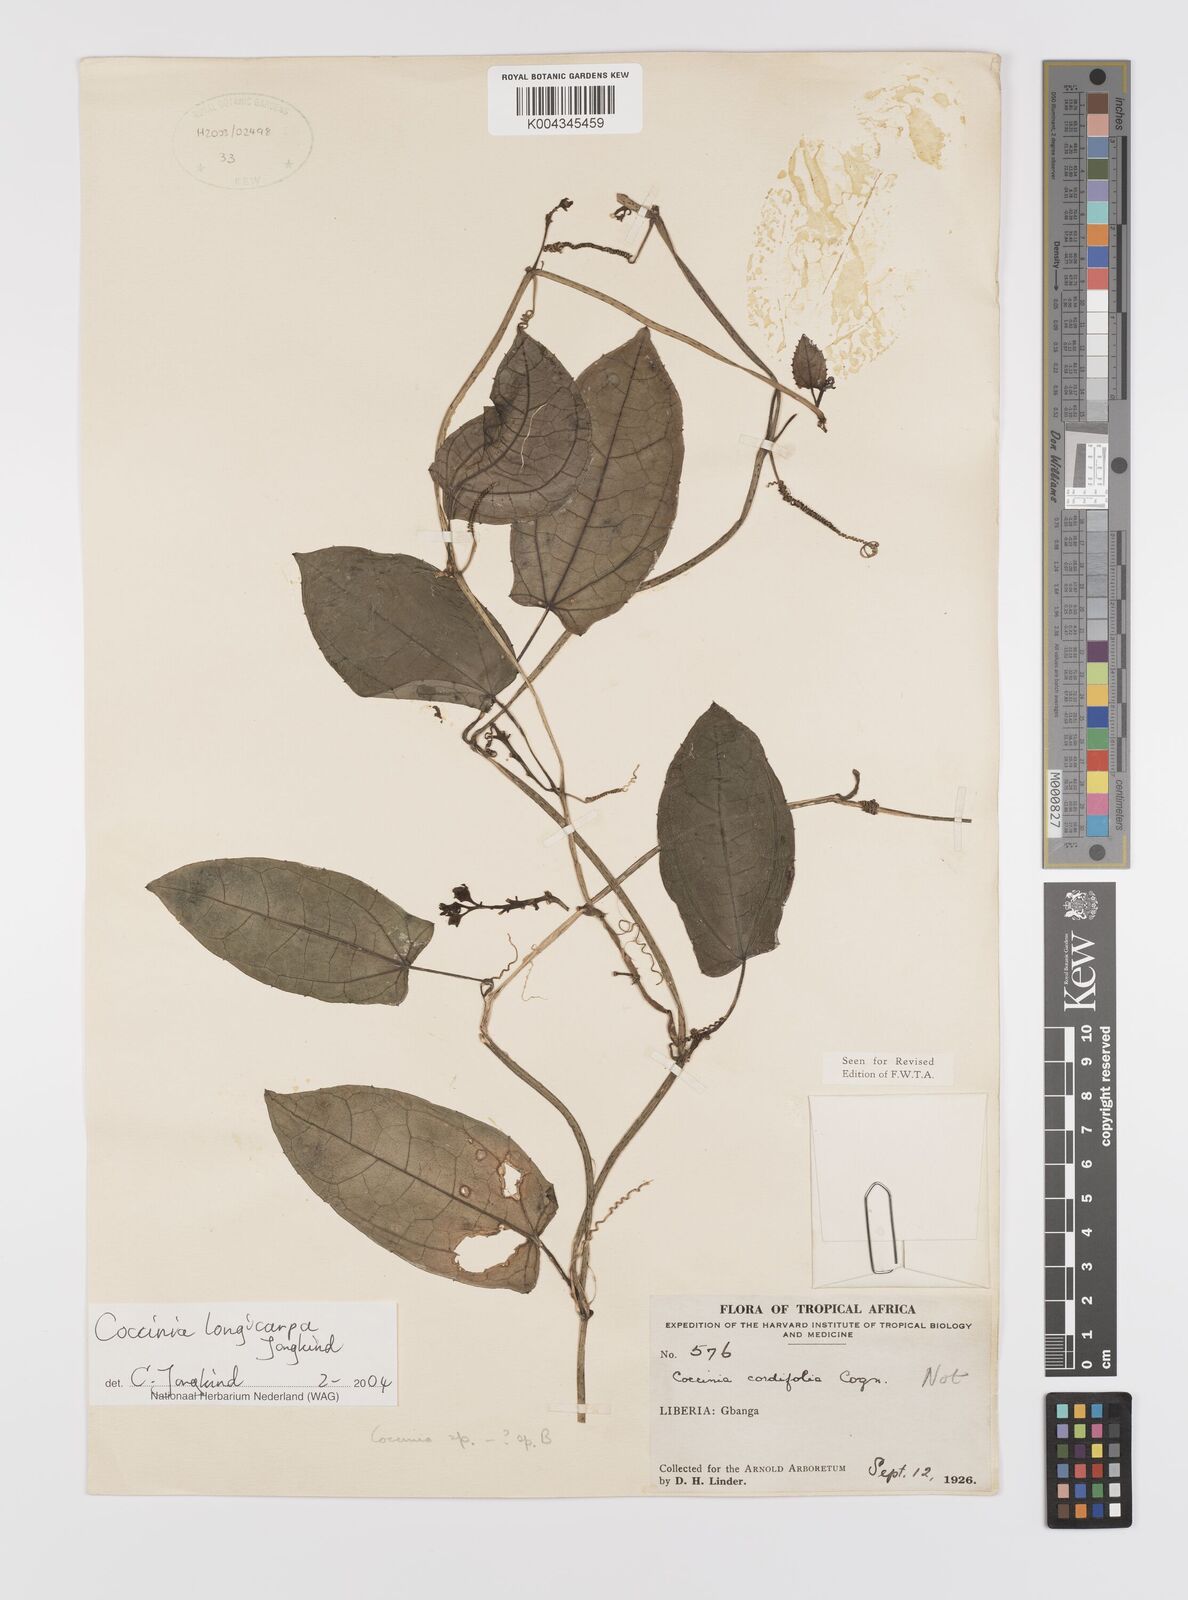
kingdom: Plantae
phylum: Tracheophyta
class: Magnoliopsida
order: Cucurbitales
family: Cucurbitaceae
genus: Coccinia
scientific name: Coccinia longicarpa
